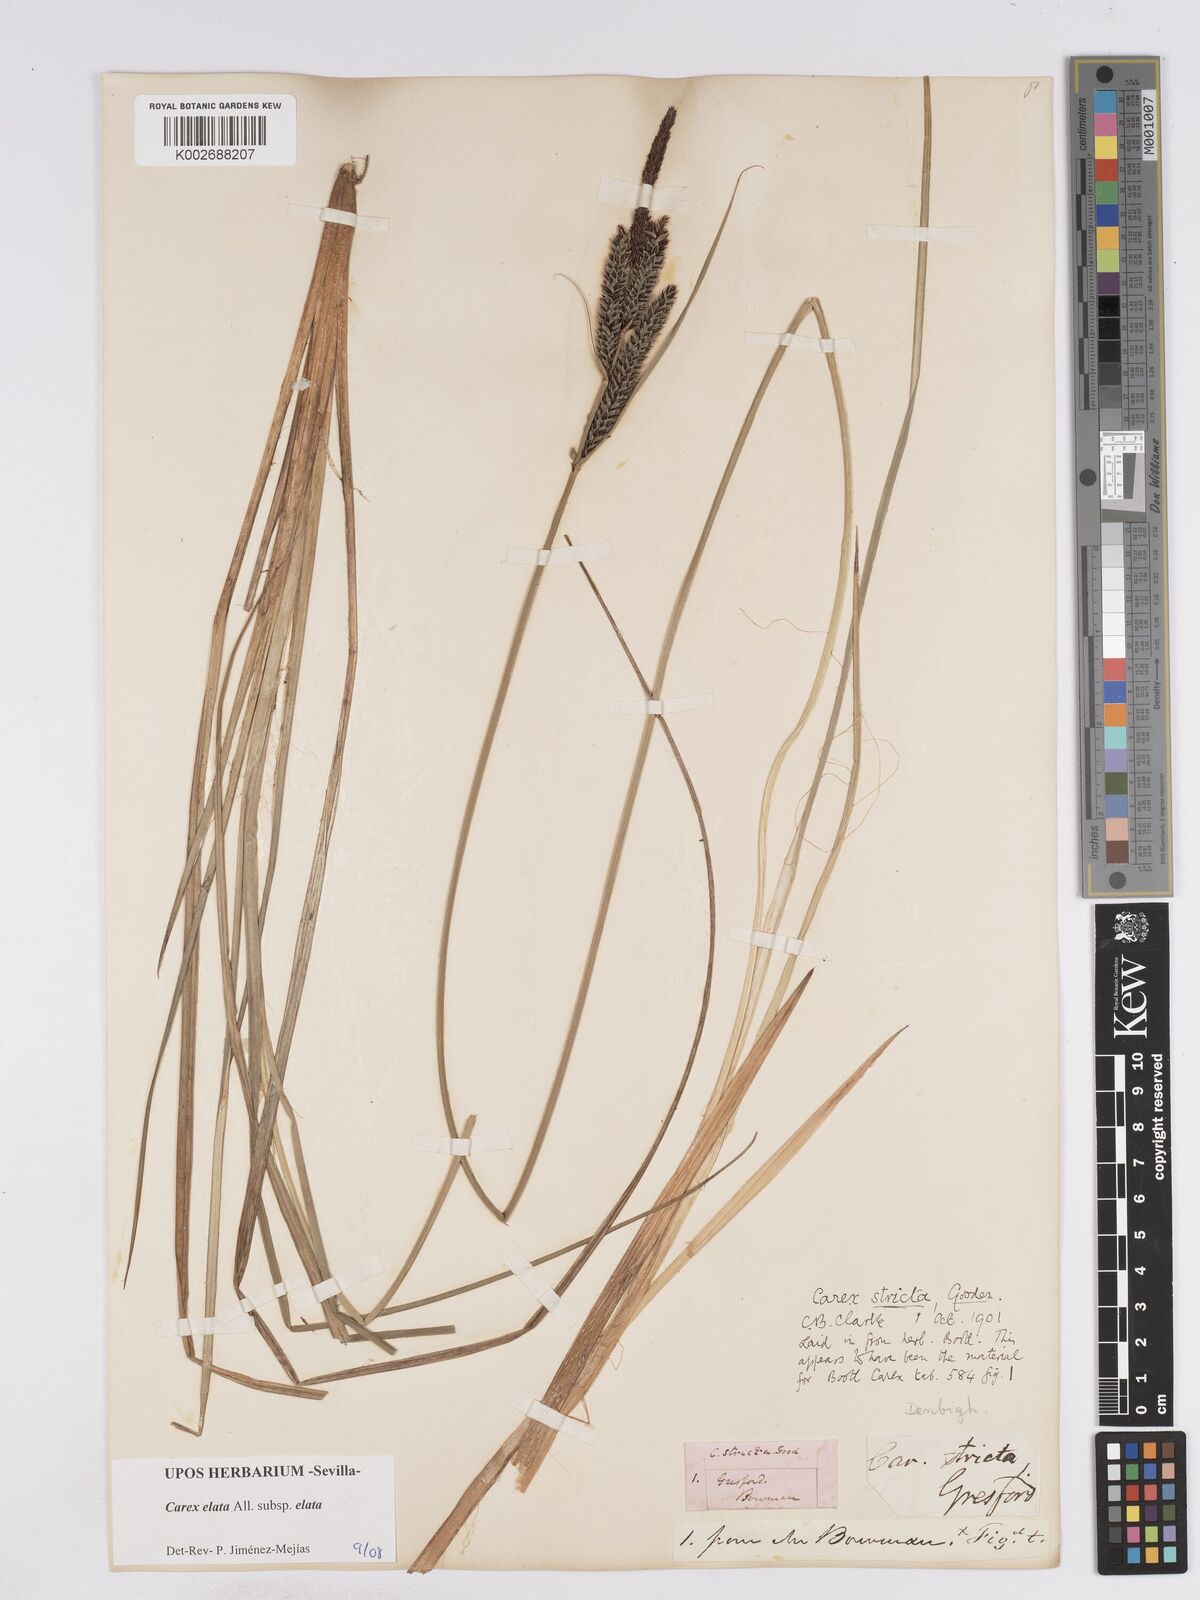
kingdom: Plantae
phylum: Tracheophyta
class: Liliopsida
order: Poales
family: Cyperaceae
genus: Carex
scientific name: Carex elata
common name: Tufted sedge
